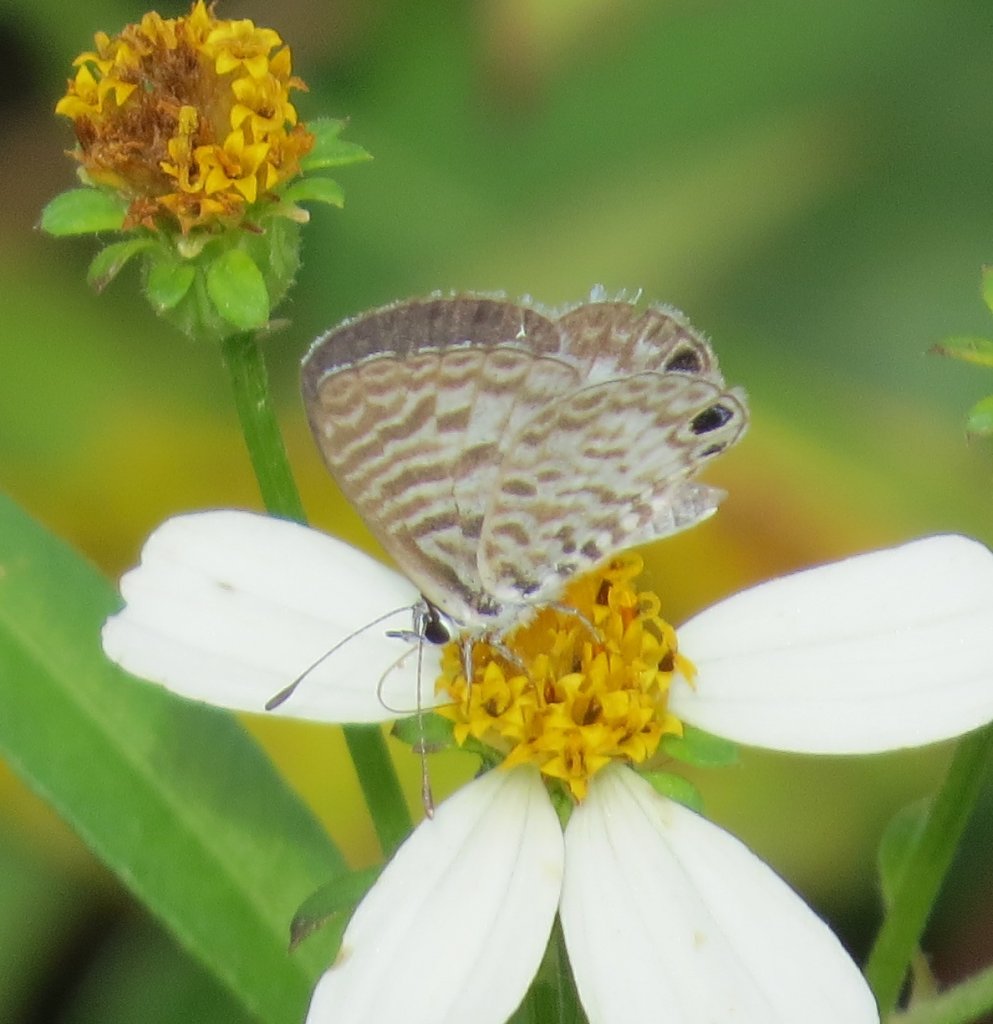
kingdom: Animalia
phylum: Arthropoda
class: Insecta
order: Lepidoptera
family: Lycaenidae
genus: Leptotes
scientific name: Leptotes cassius
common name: Cassius Blue
